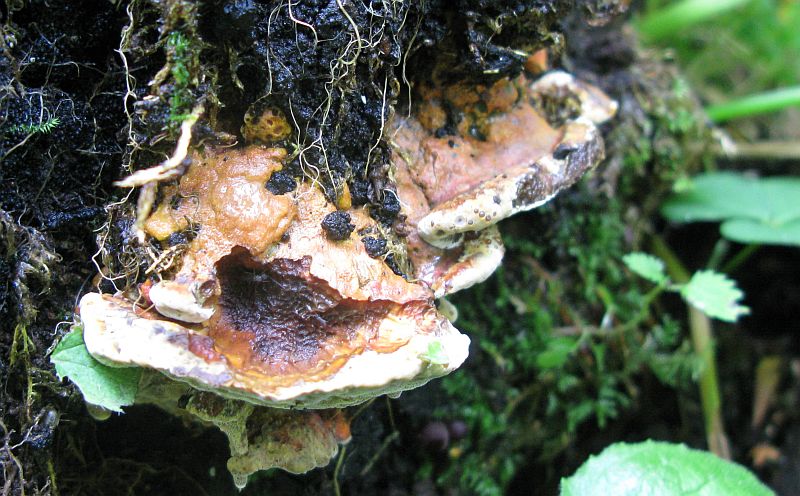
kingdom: Fungi
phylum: Basidiomycota
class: Agaricomycetes
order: Hymenochaetales
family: Hymenochaetaceae
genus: Inonotus
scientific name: Inonotus cuticularis
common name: kroghåret spejlporesvamp
